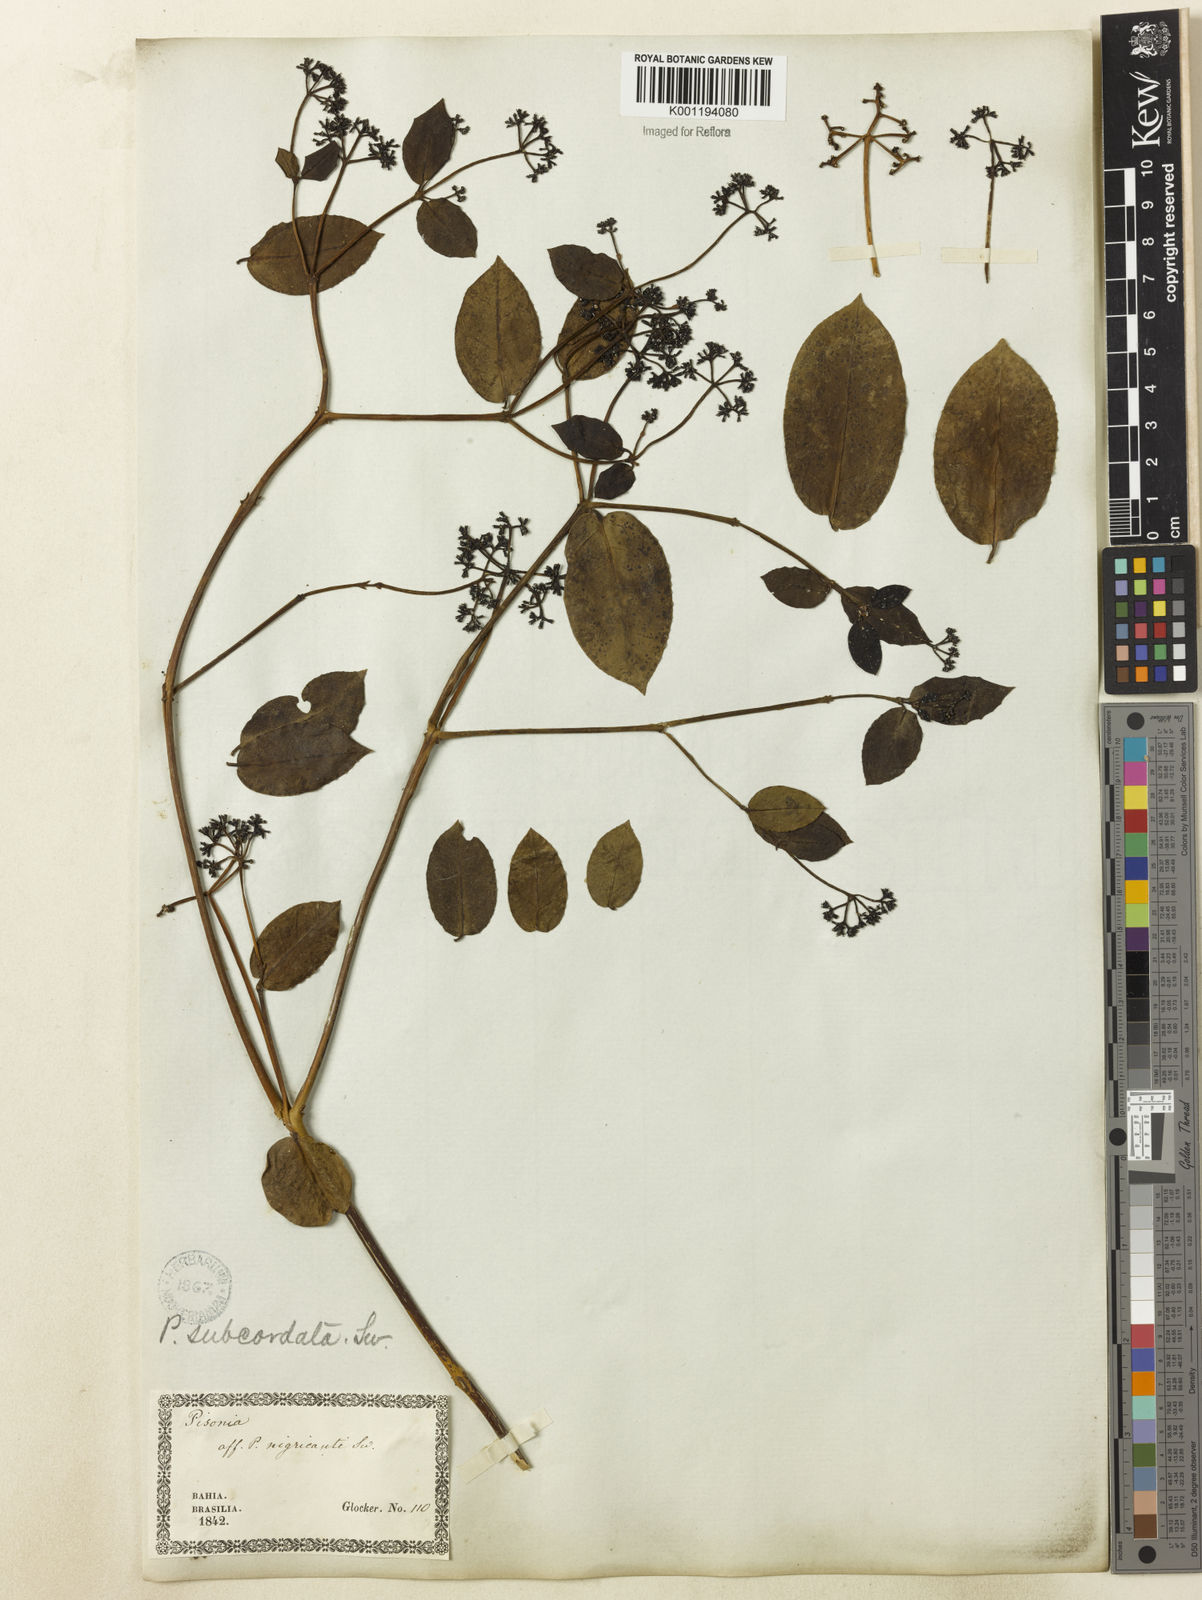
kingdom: Plantae
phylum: Tracheophyta
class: Magnoliopsida
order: Caryophyllales
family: Nyctaginaceae
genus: Guapira
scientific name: Guapira
